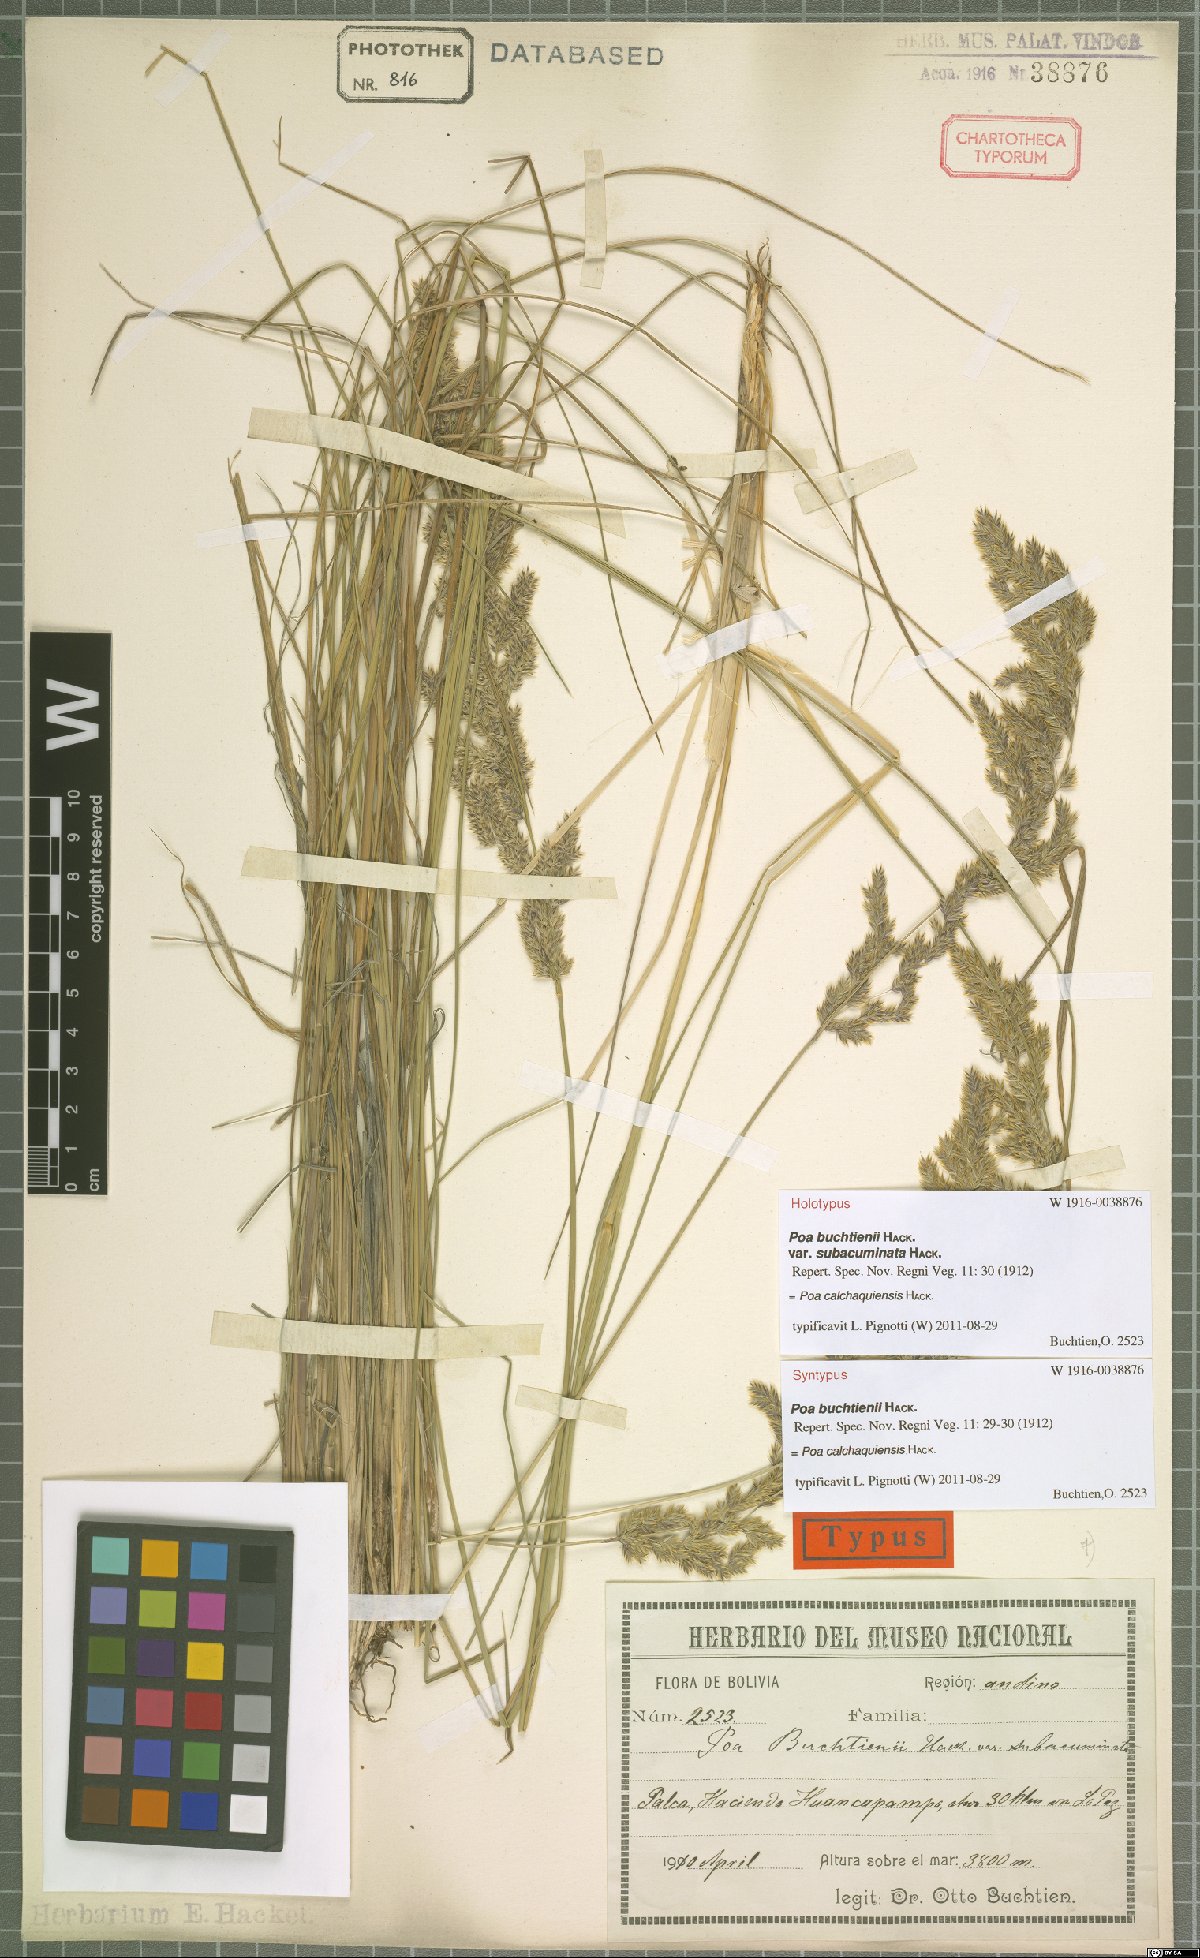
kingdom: Plantae
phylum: Tracheophyta
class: Liliopsida
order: Poales
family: Poaceae
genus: Poa
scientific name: Poa calchaquiensis
